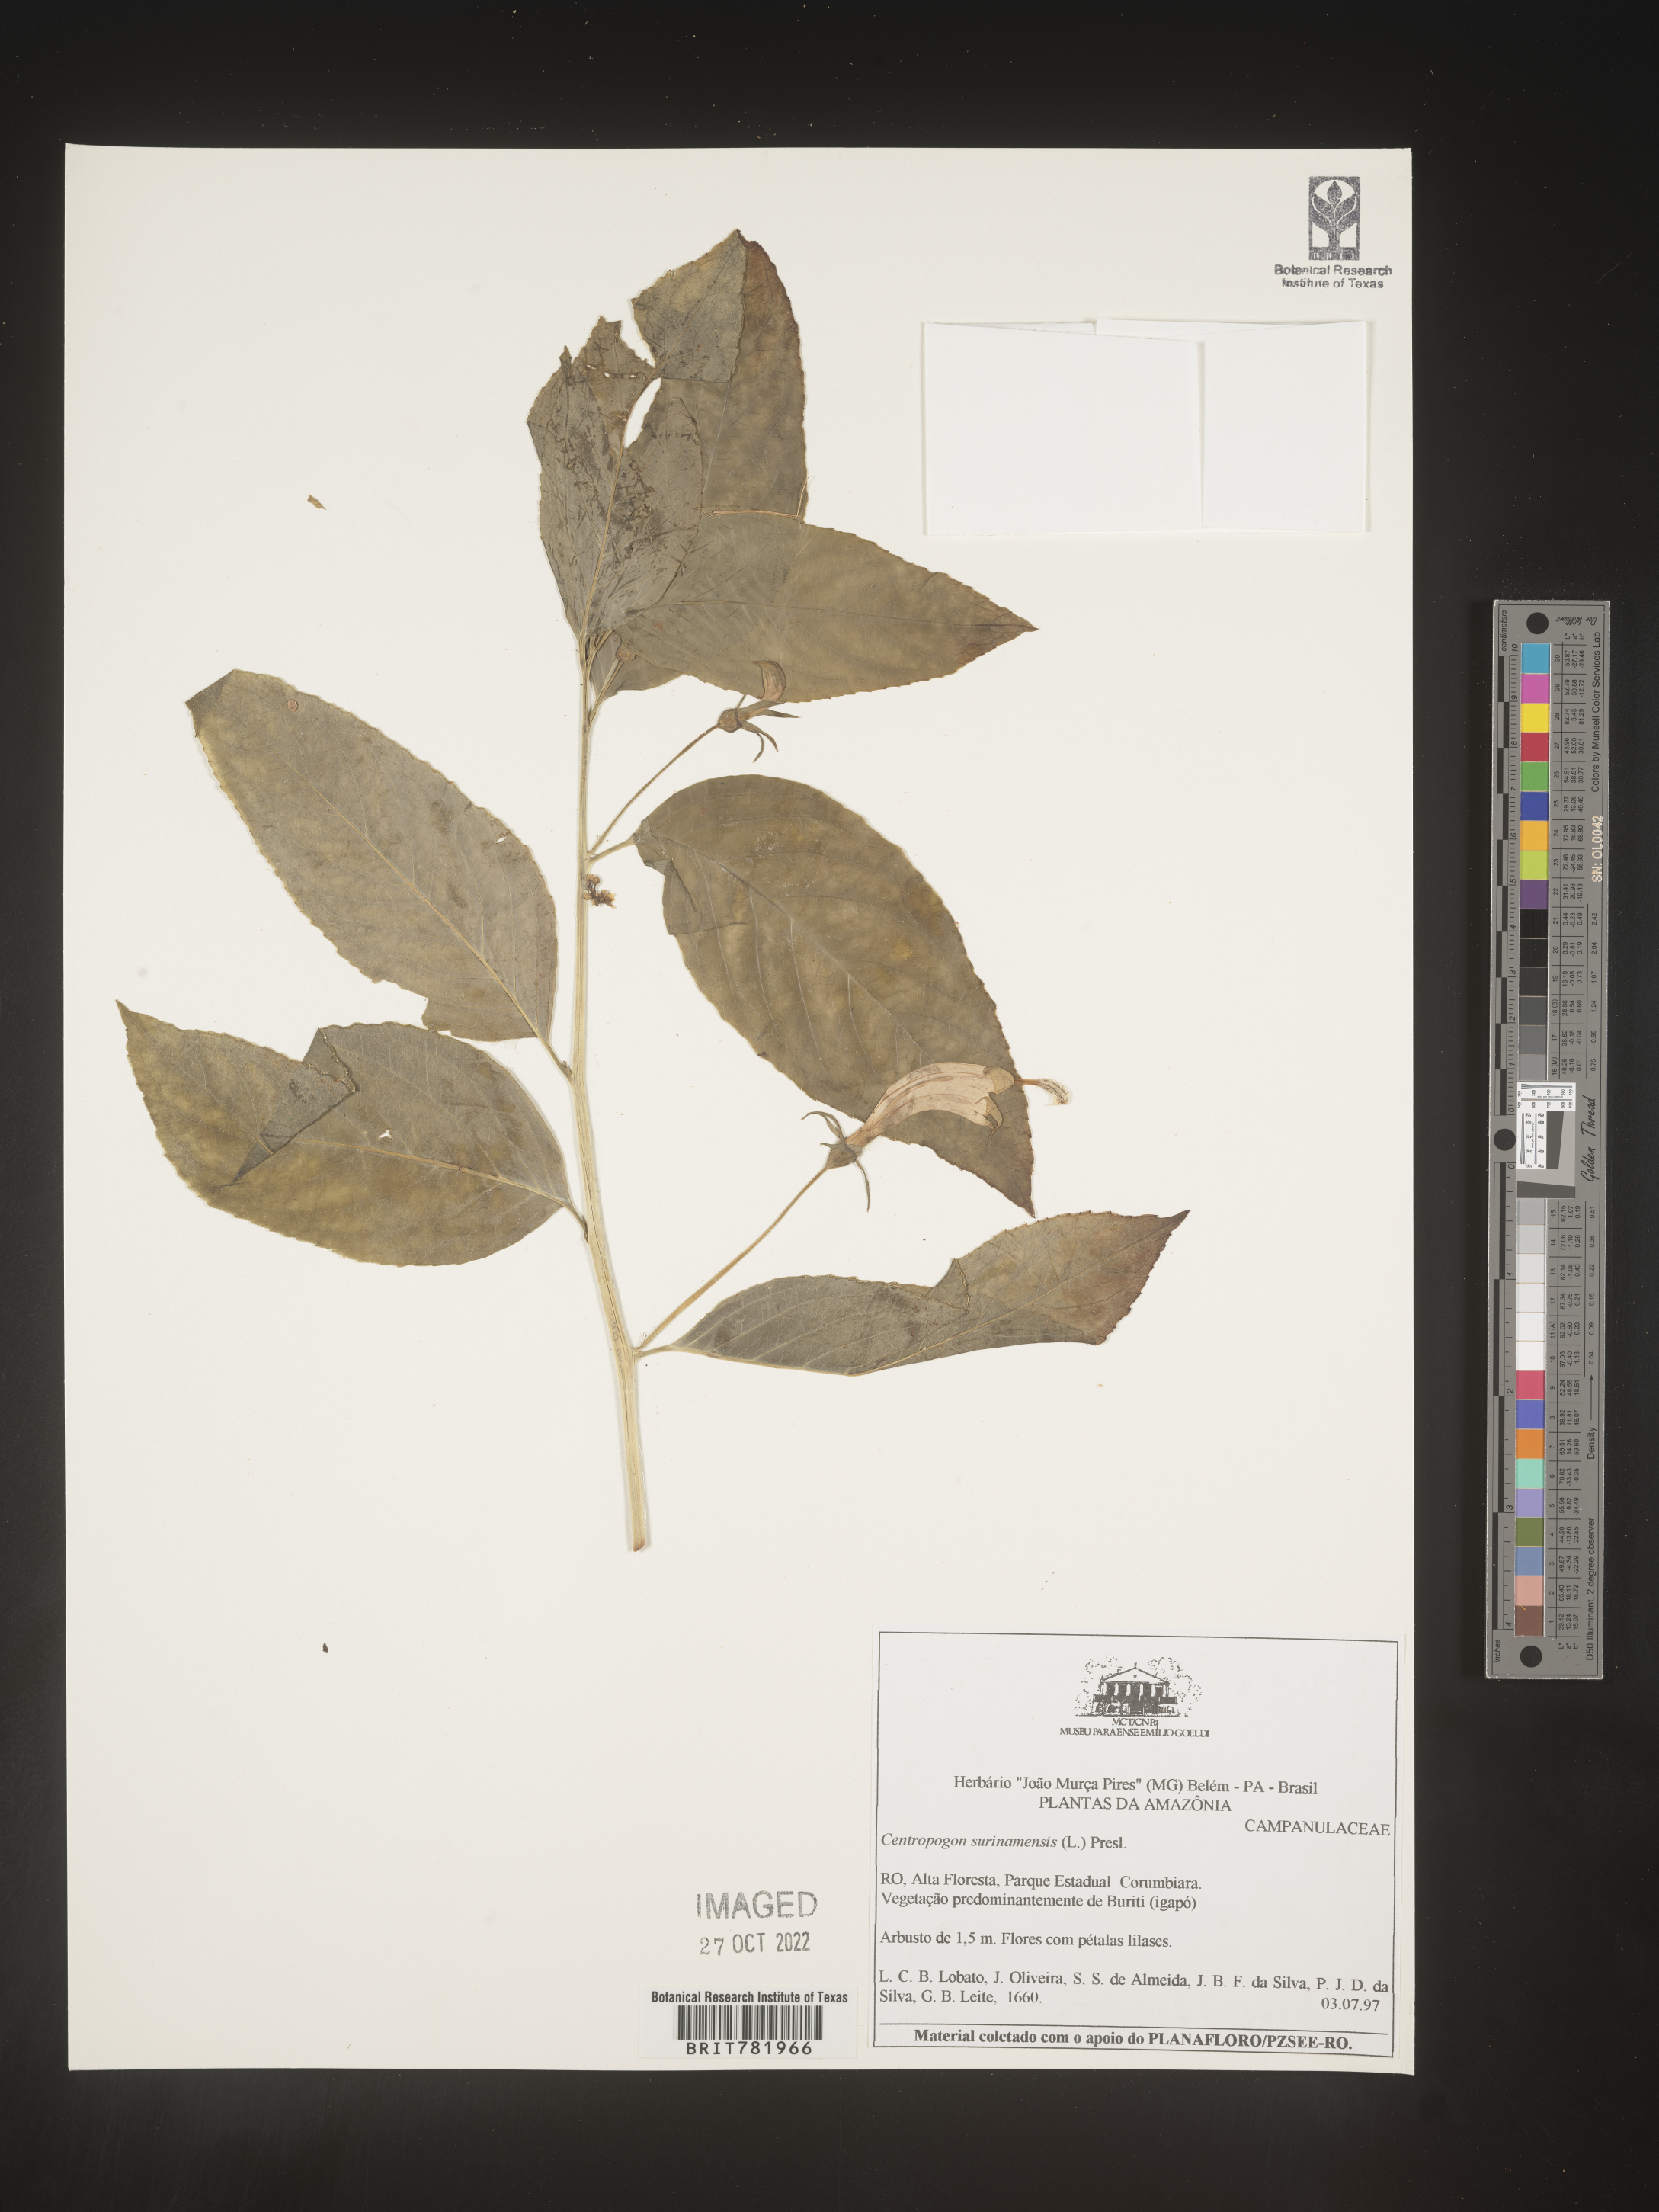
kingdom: Plantae
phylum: Tracheophyta
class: Magnoliopsida
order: Asterales
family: Campanulaceae
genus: Centropogon
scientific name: Centropogon
